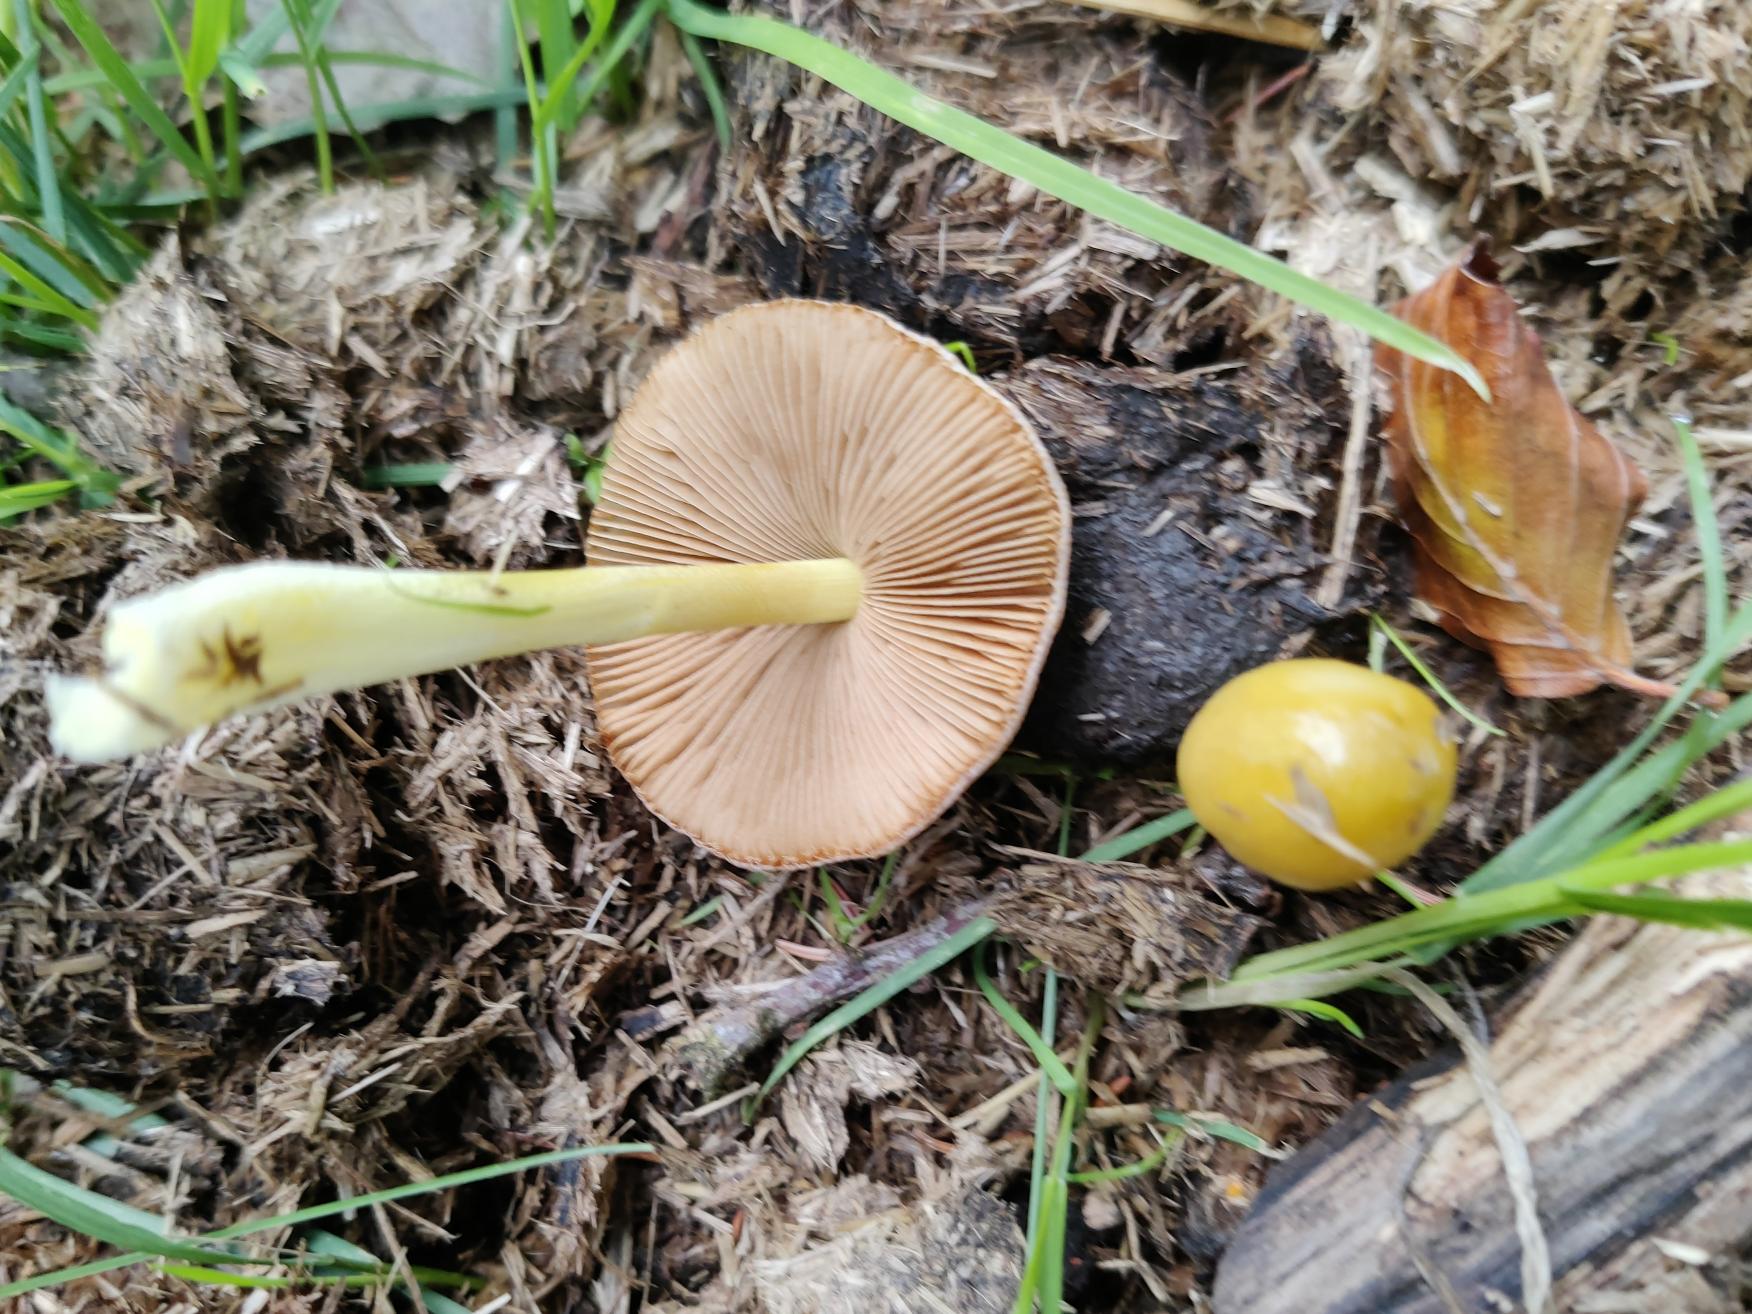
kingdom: Fungi
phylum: Basidiomycota
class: Agaricomycetes
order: Agaricales
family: Bolbitiaceae
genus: Bolbitius
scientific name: Bolbitius titubans
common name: Almindelig gulhat
